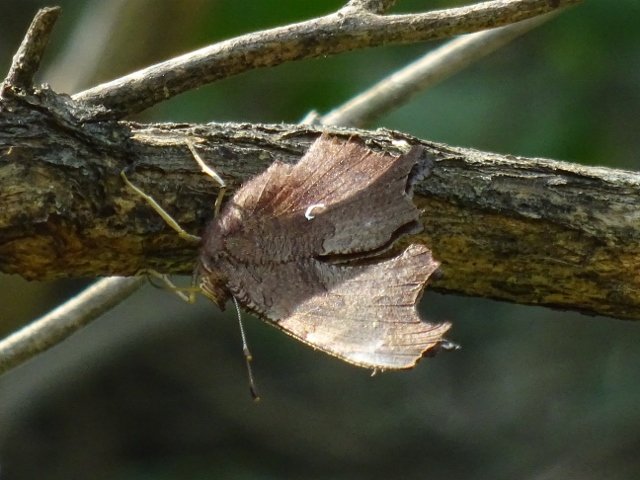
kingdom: Animalia
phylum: Arthropoda
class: Insecta
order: Lepidoptera
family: Nymphalidae
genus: Polygonia
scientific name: Polygonia comma
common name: Eastern Comma
